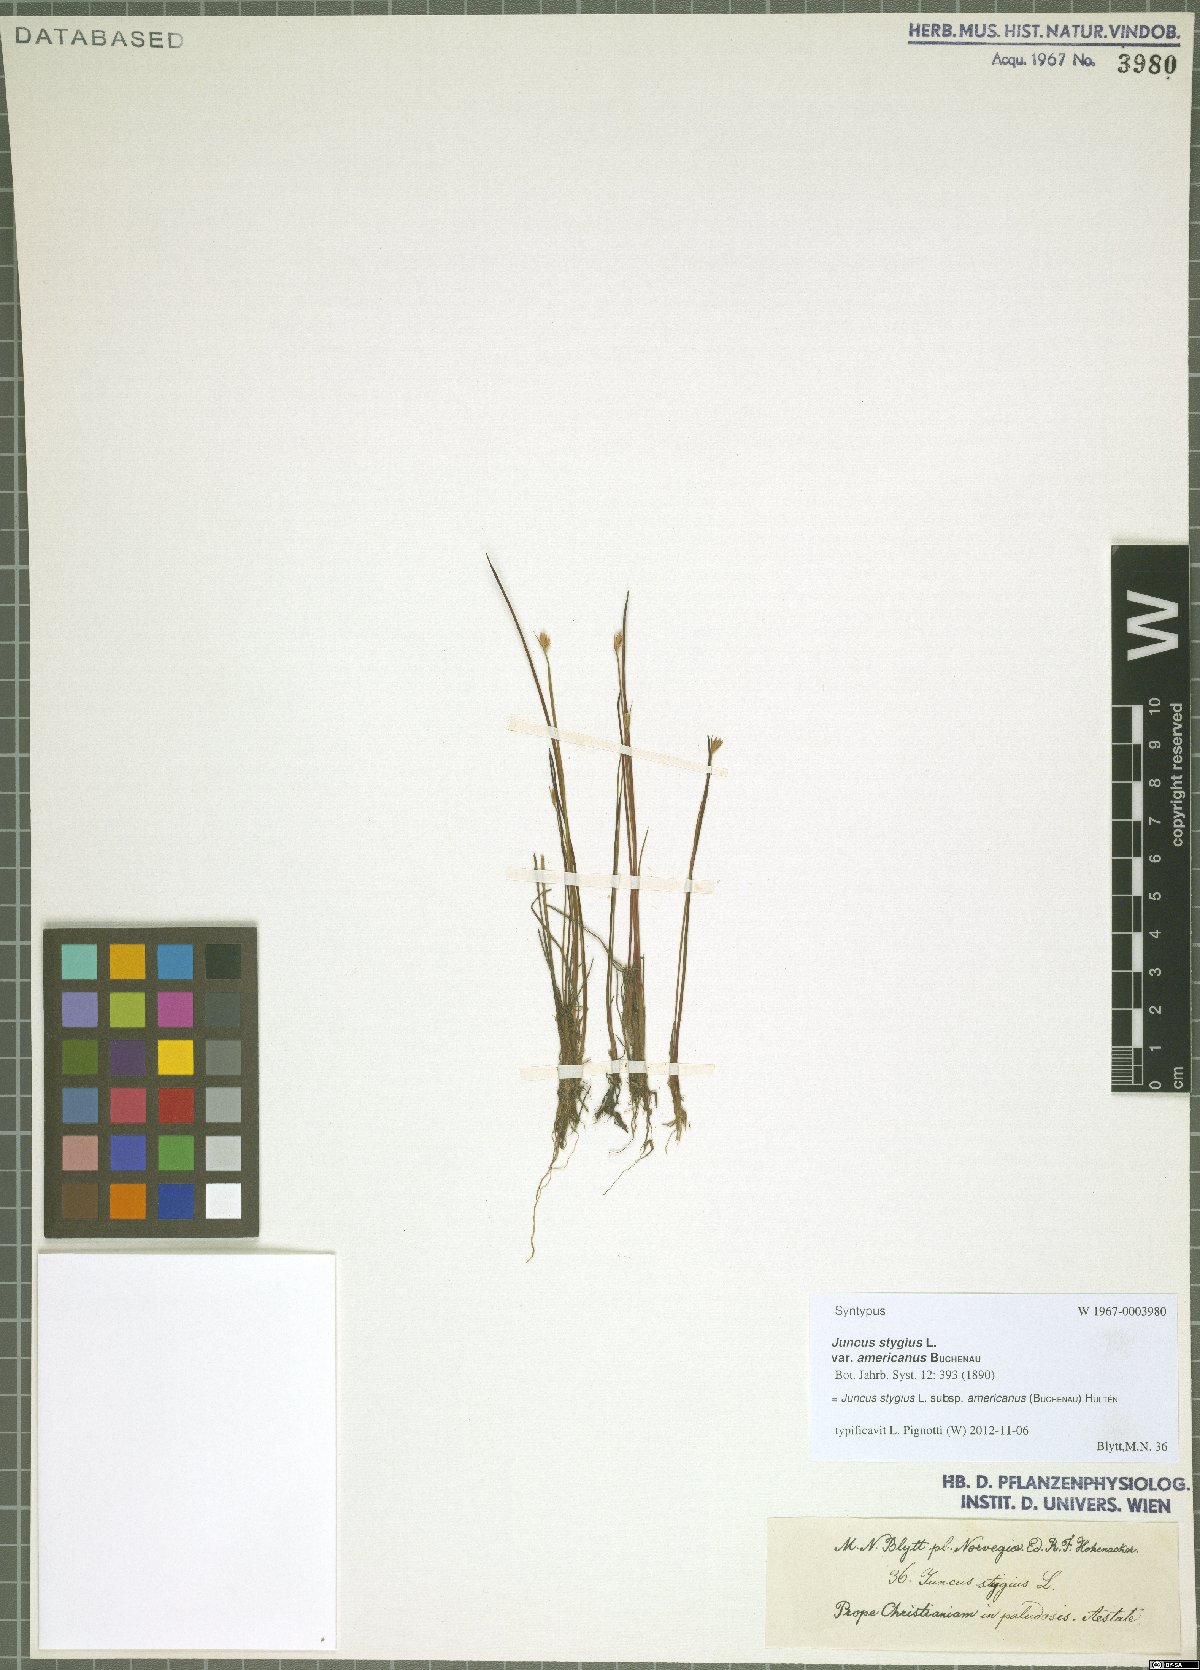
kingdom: Plantae
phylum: Tracheophyta
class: Liliopsida
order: Poales
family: Juncaceae
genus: Juncus
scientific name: Juncus stygius
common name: Bog rush
